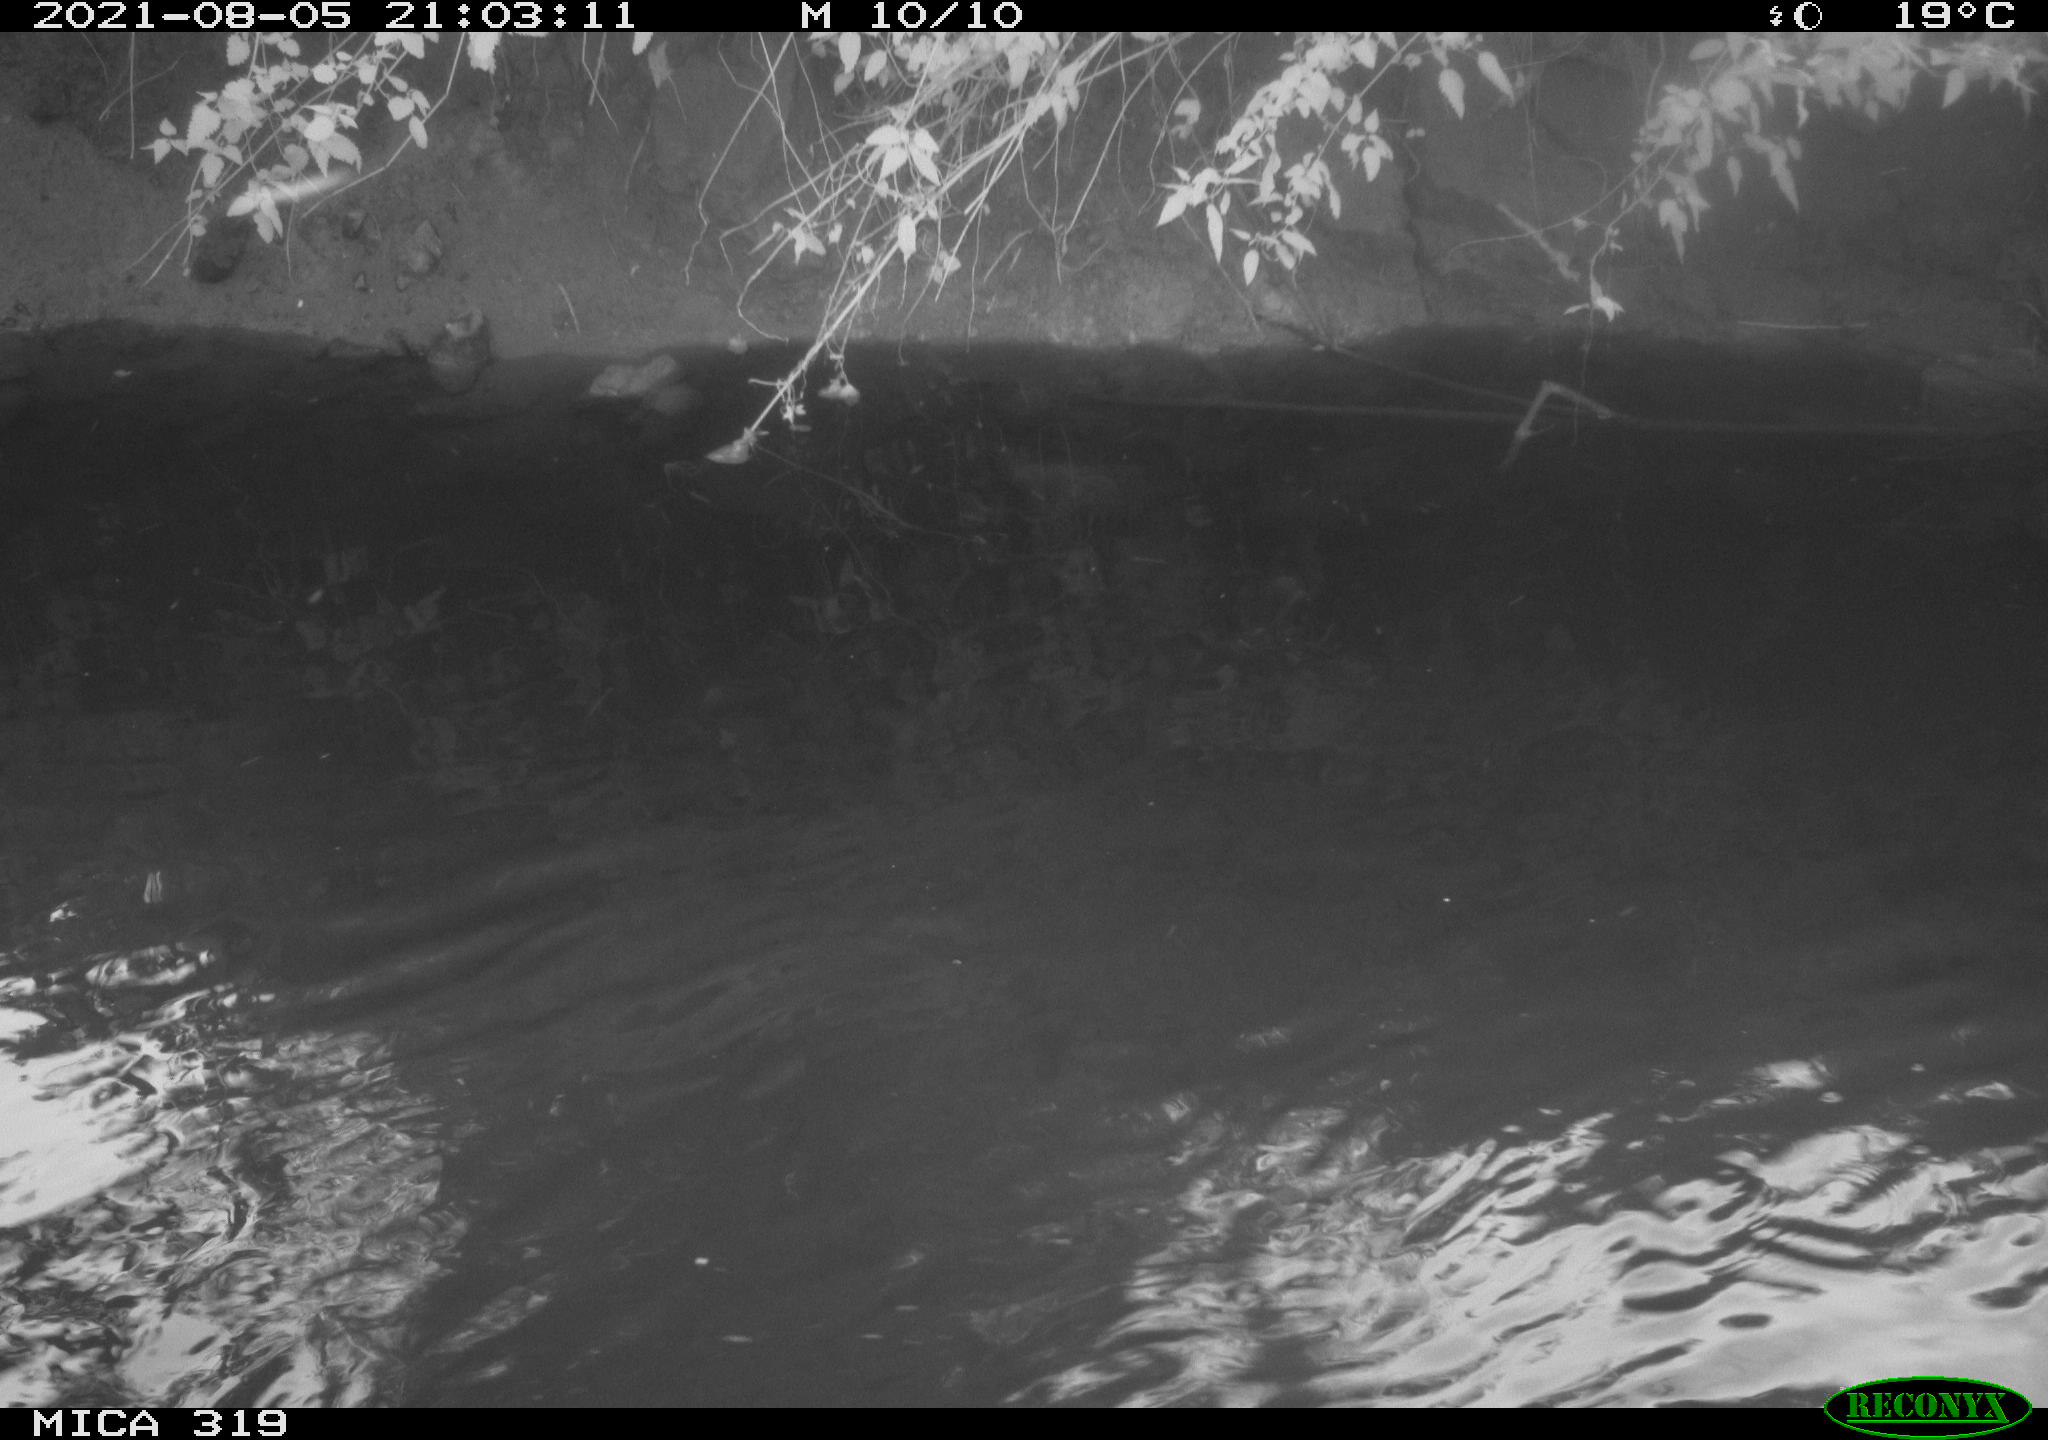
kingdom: Animalia
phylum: Chordata
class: Aves
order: Anseriformes
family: Anatidae
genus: Anas
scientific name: Anas platyrhynchos
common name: Mallard
